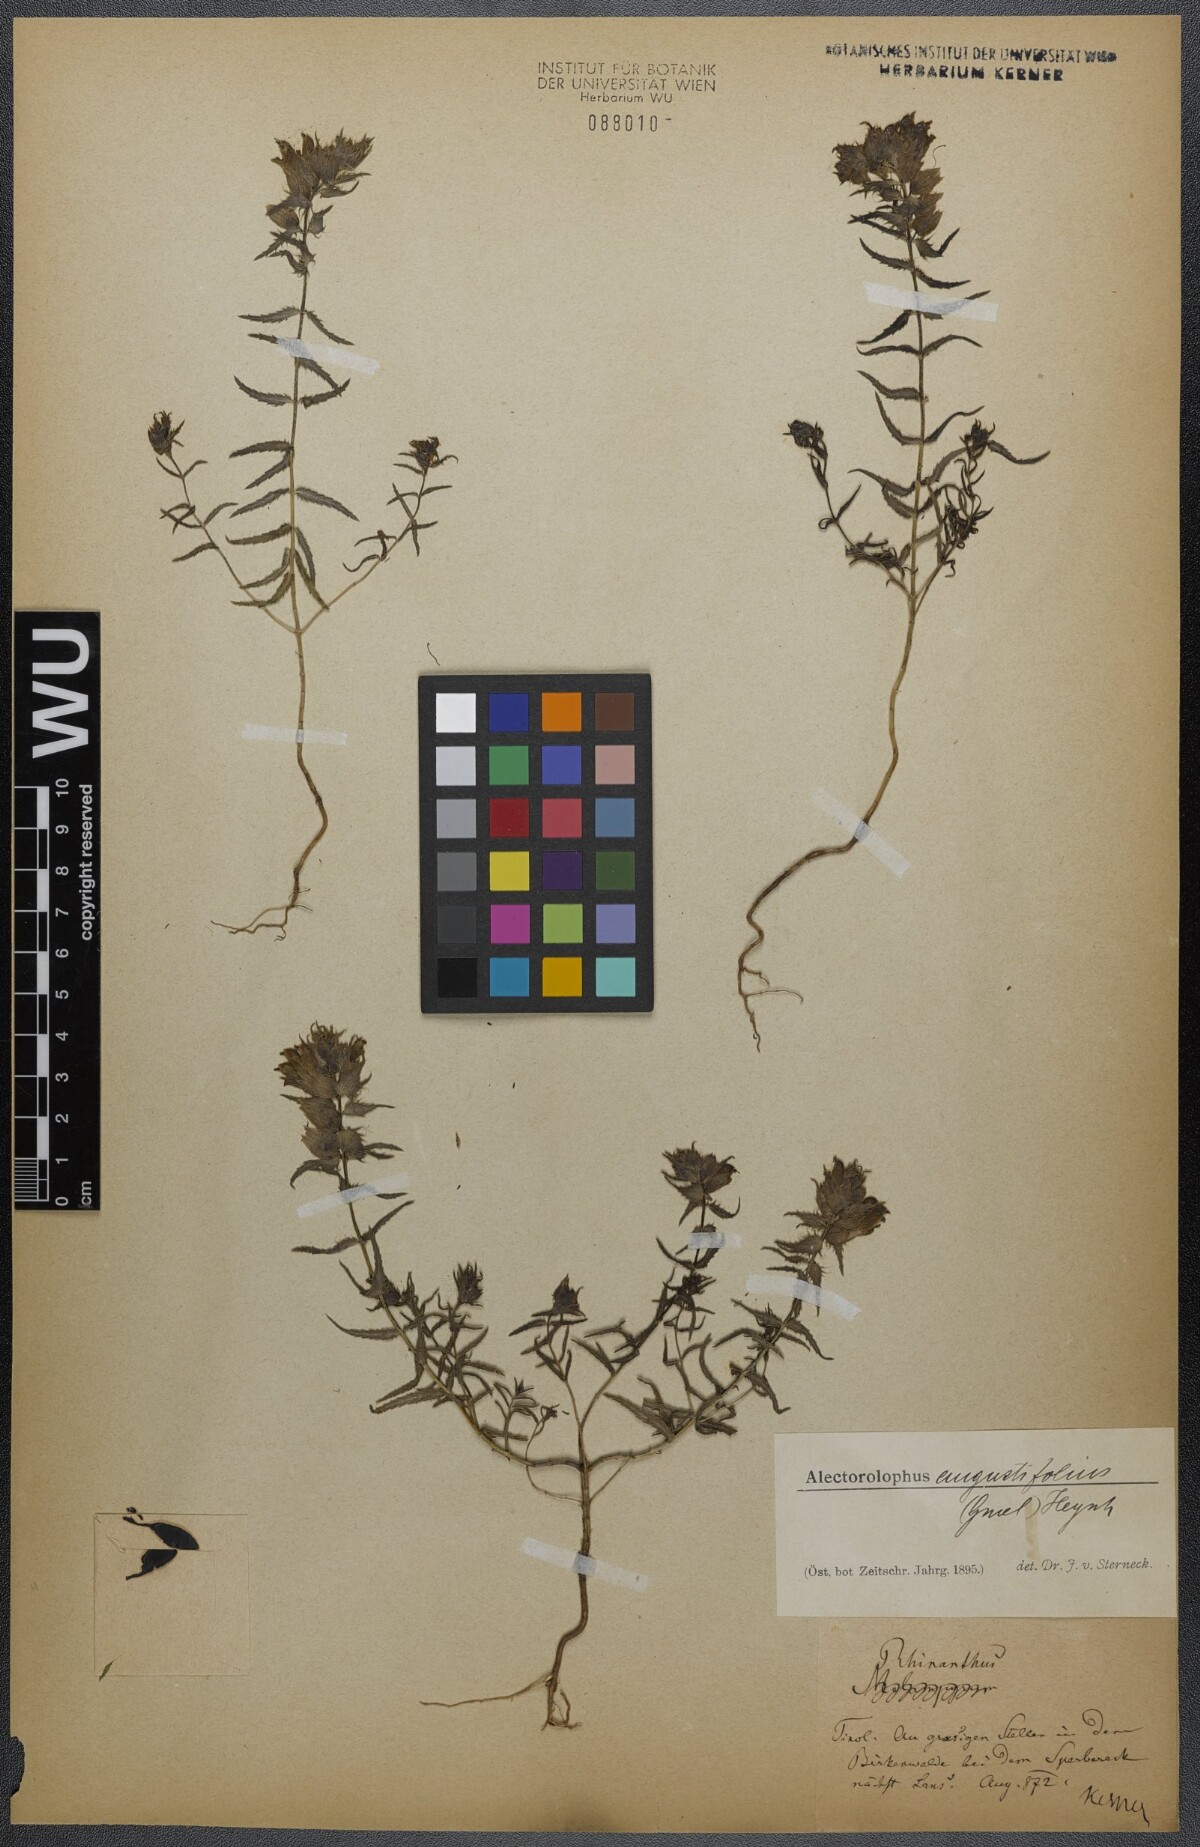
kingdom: Plantae
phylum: Tracheophyta
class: Magnoliopsida
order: Lamiales
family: Orobanchaceae
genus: Rhinanthus
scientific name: Rhinanthus
